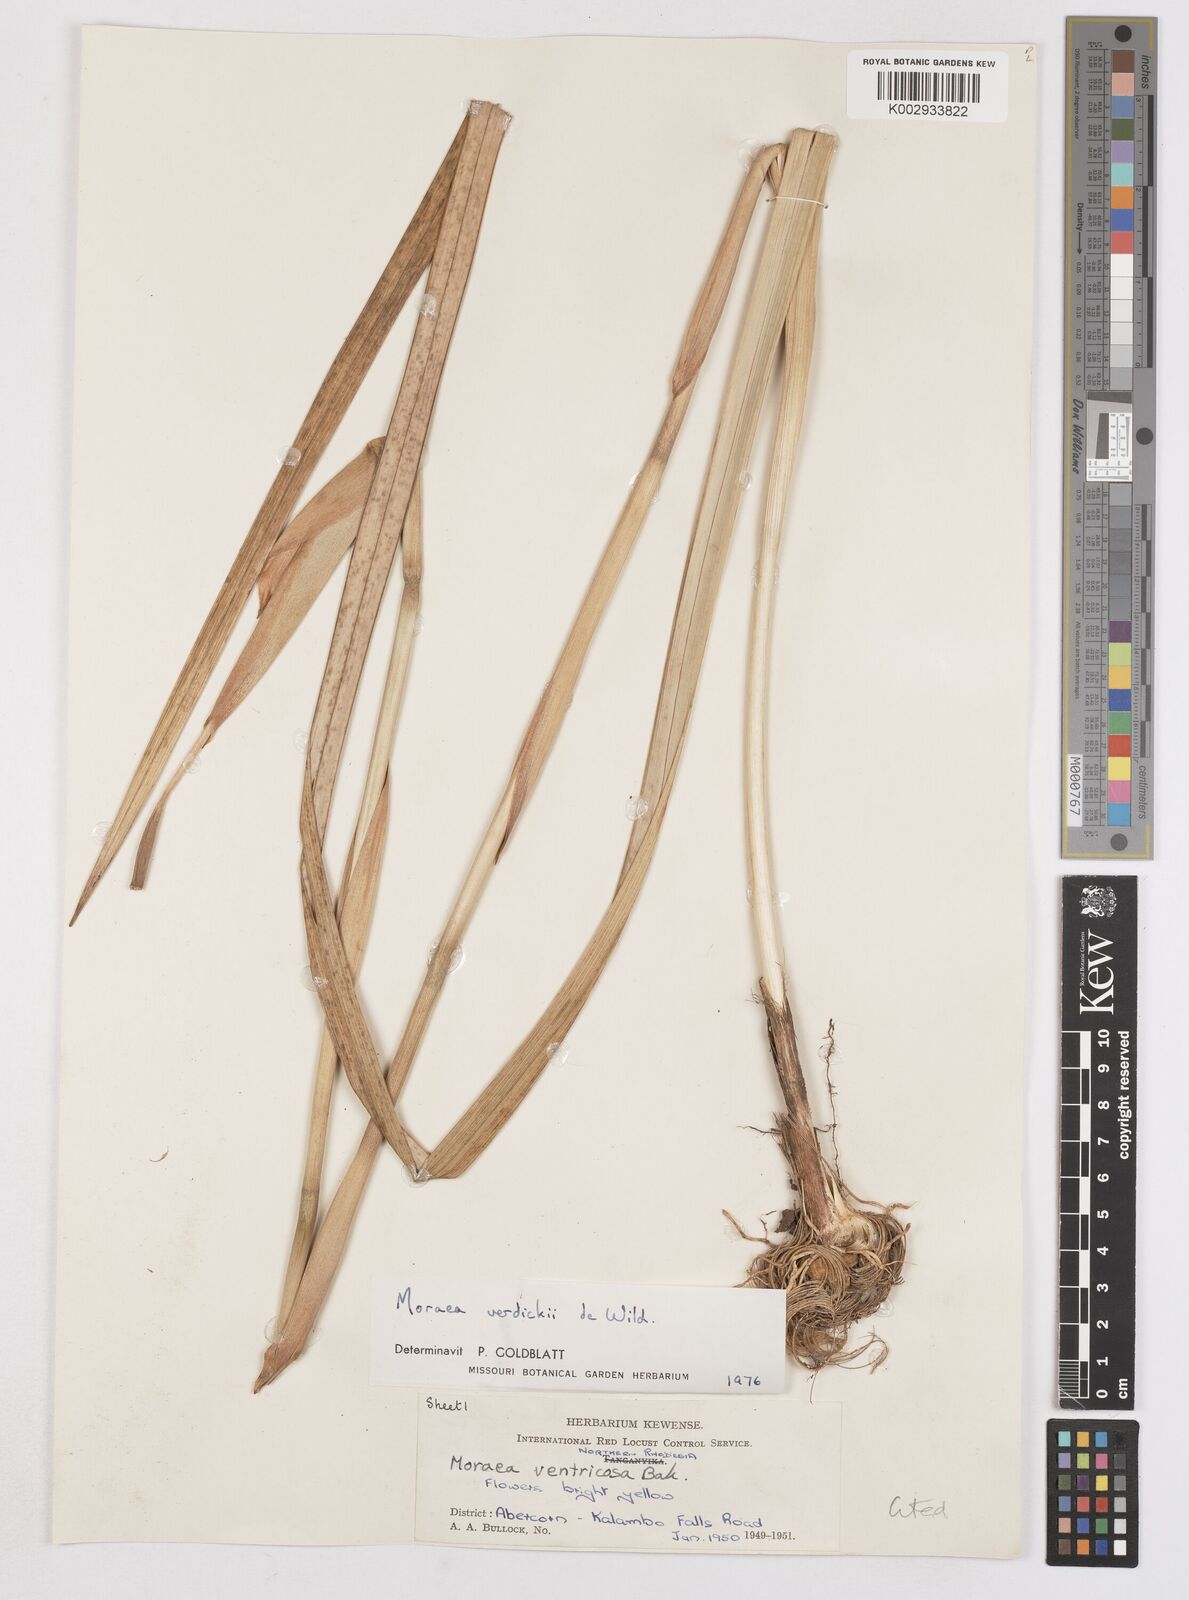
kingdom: Plantae
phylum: Tracheophyta
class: Liliopsida
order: Asparagales
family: Iridaceae
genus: Moraea
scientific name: Moraea verdickii
